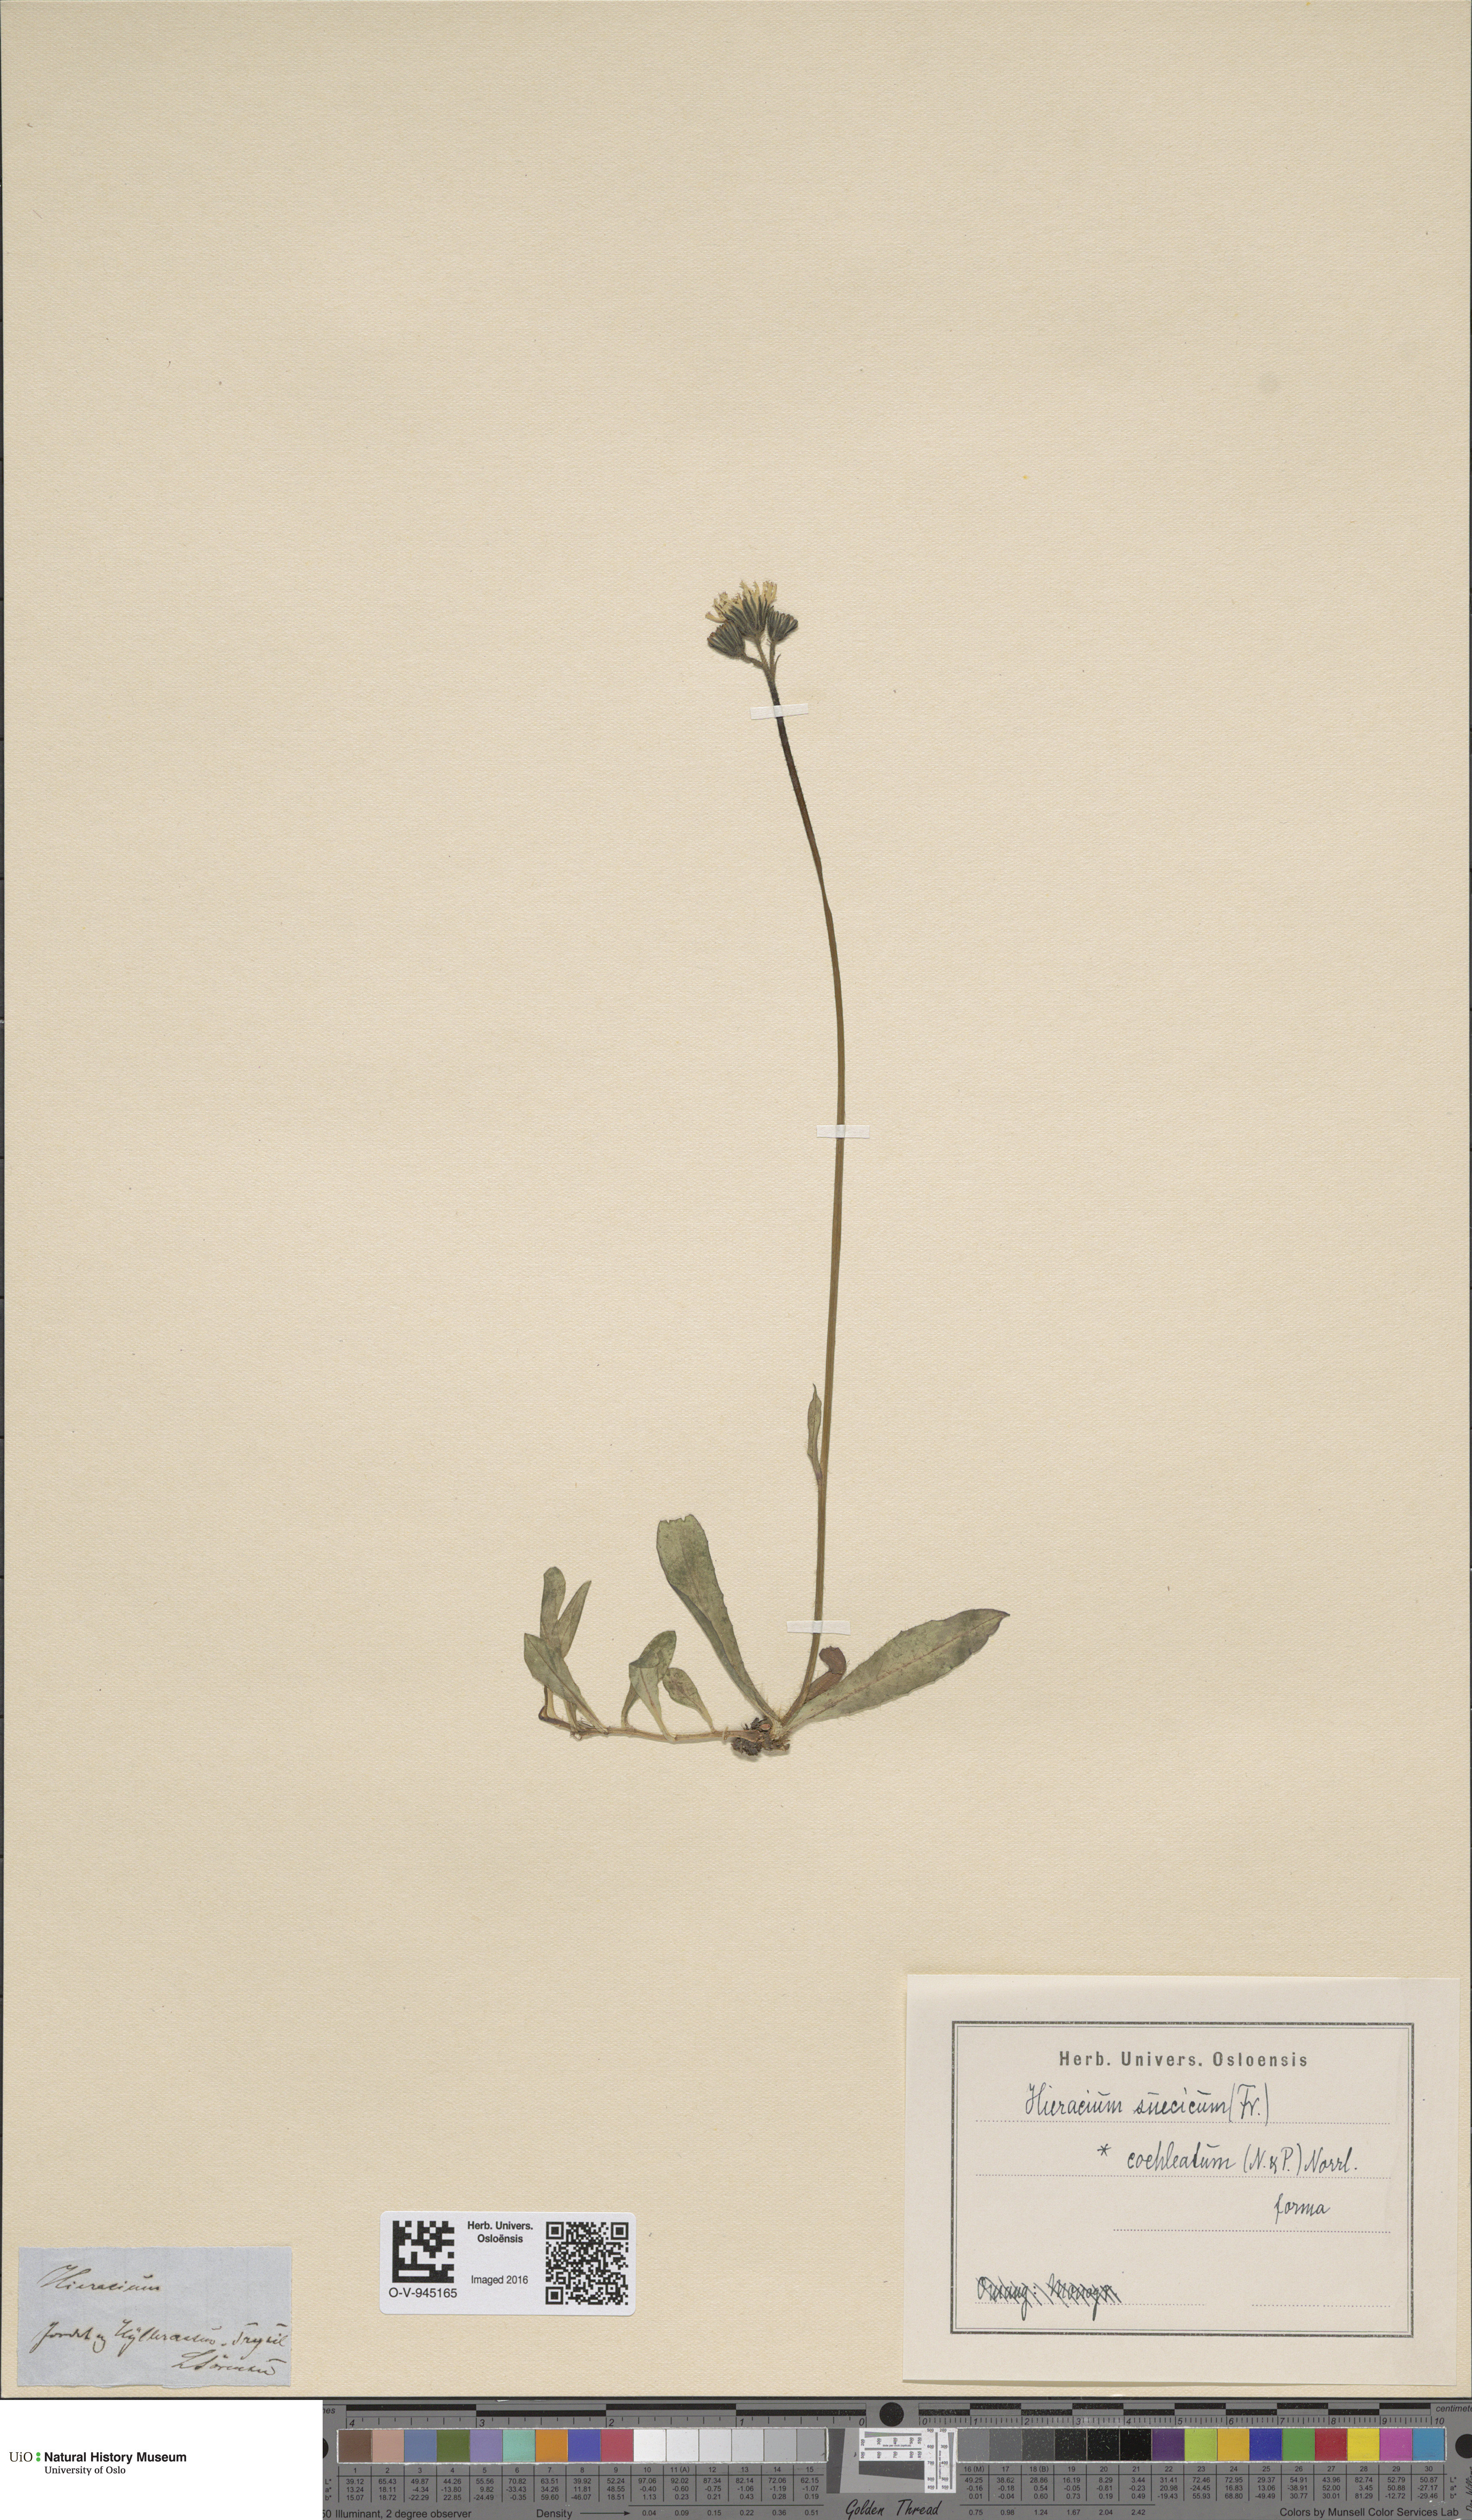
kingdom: Plantae
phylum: Tracheophyta
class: Magnoliopsida
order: Asterales
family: Asteraceae
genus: Pilosella
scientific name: Pilosella dubia
